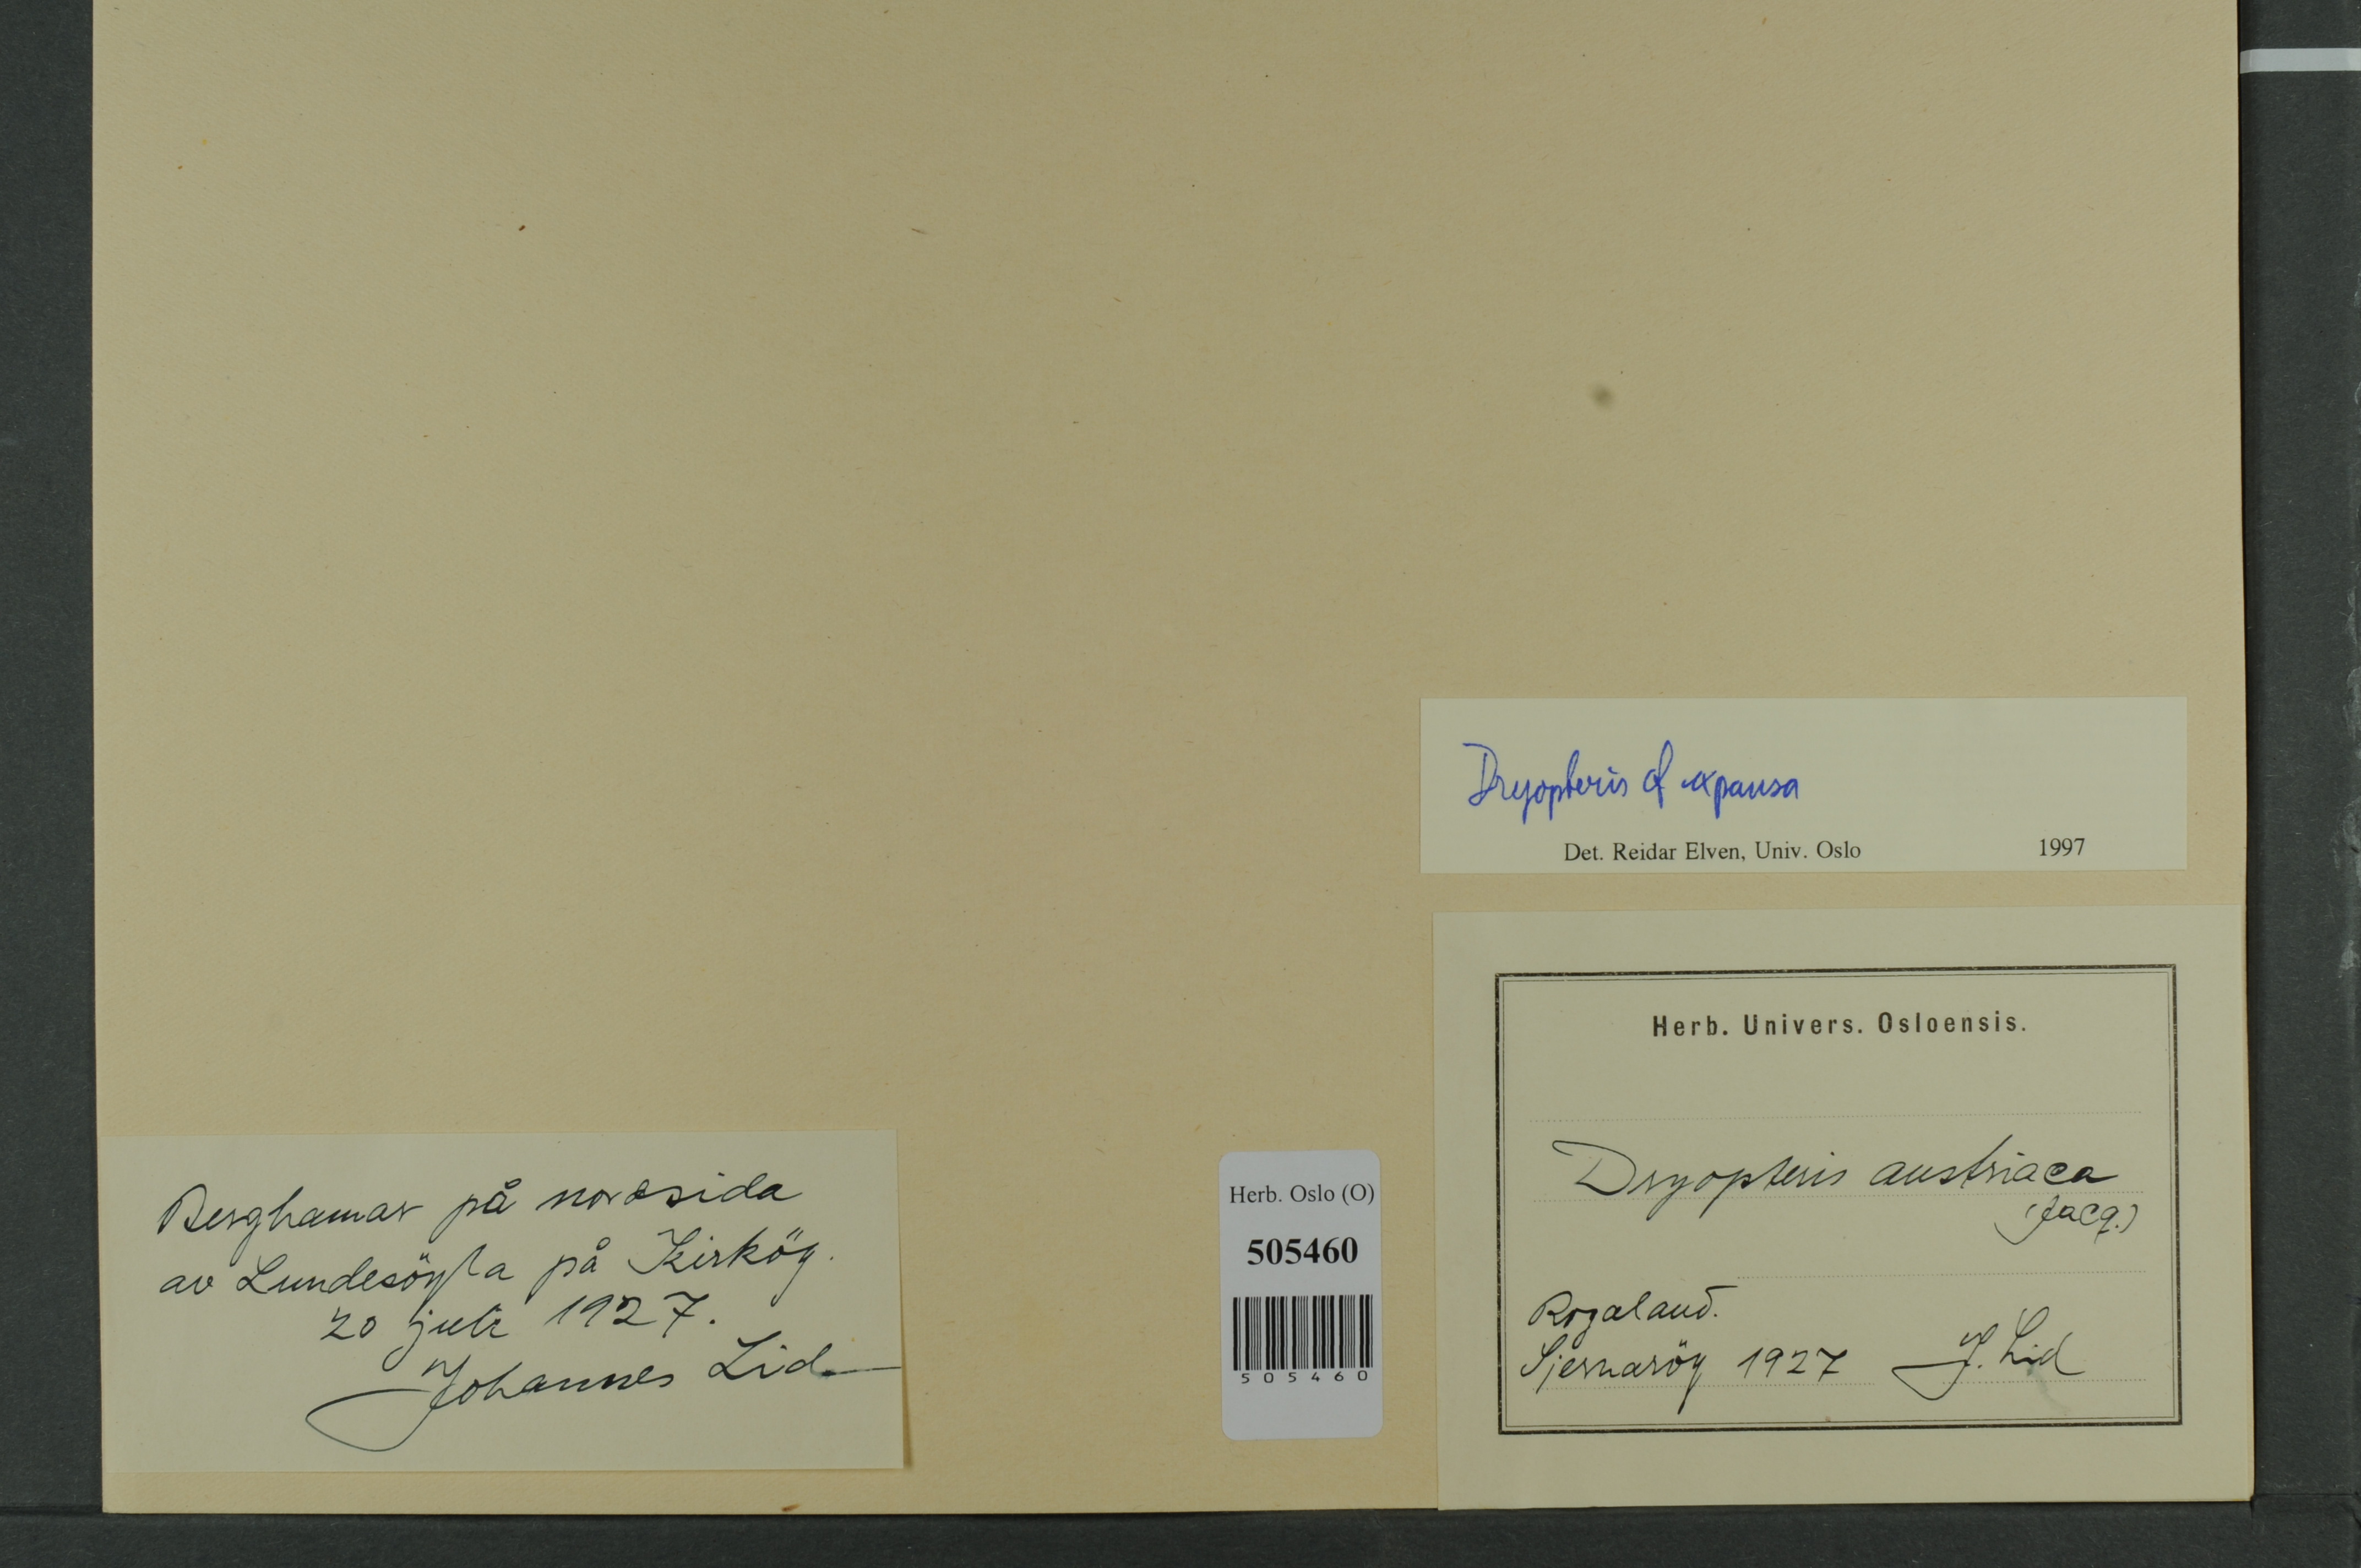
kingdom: Plantae
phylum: Tracheophyta
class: Polypodiopsida
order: Polypodiales
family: Dryopteridaceae
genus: Dryopteris
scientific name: Dryopteris expansa
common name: Northern buckler fern
